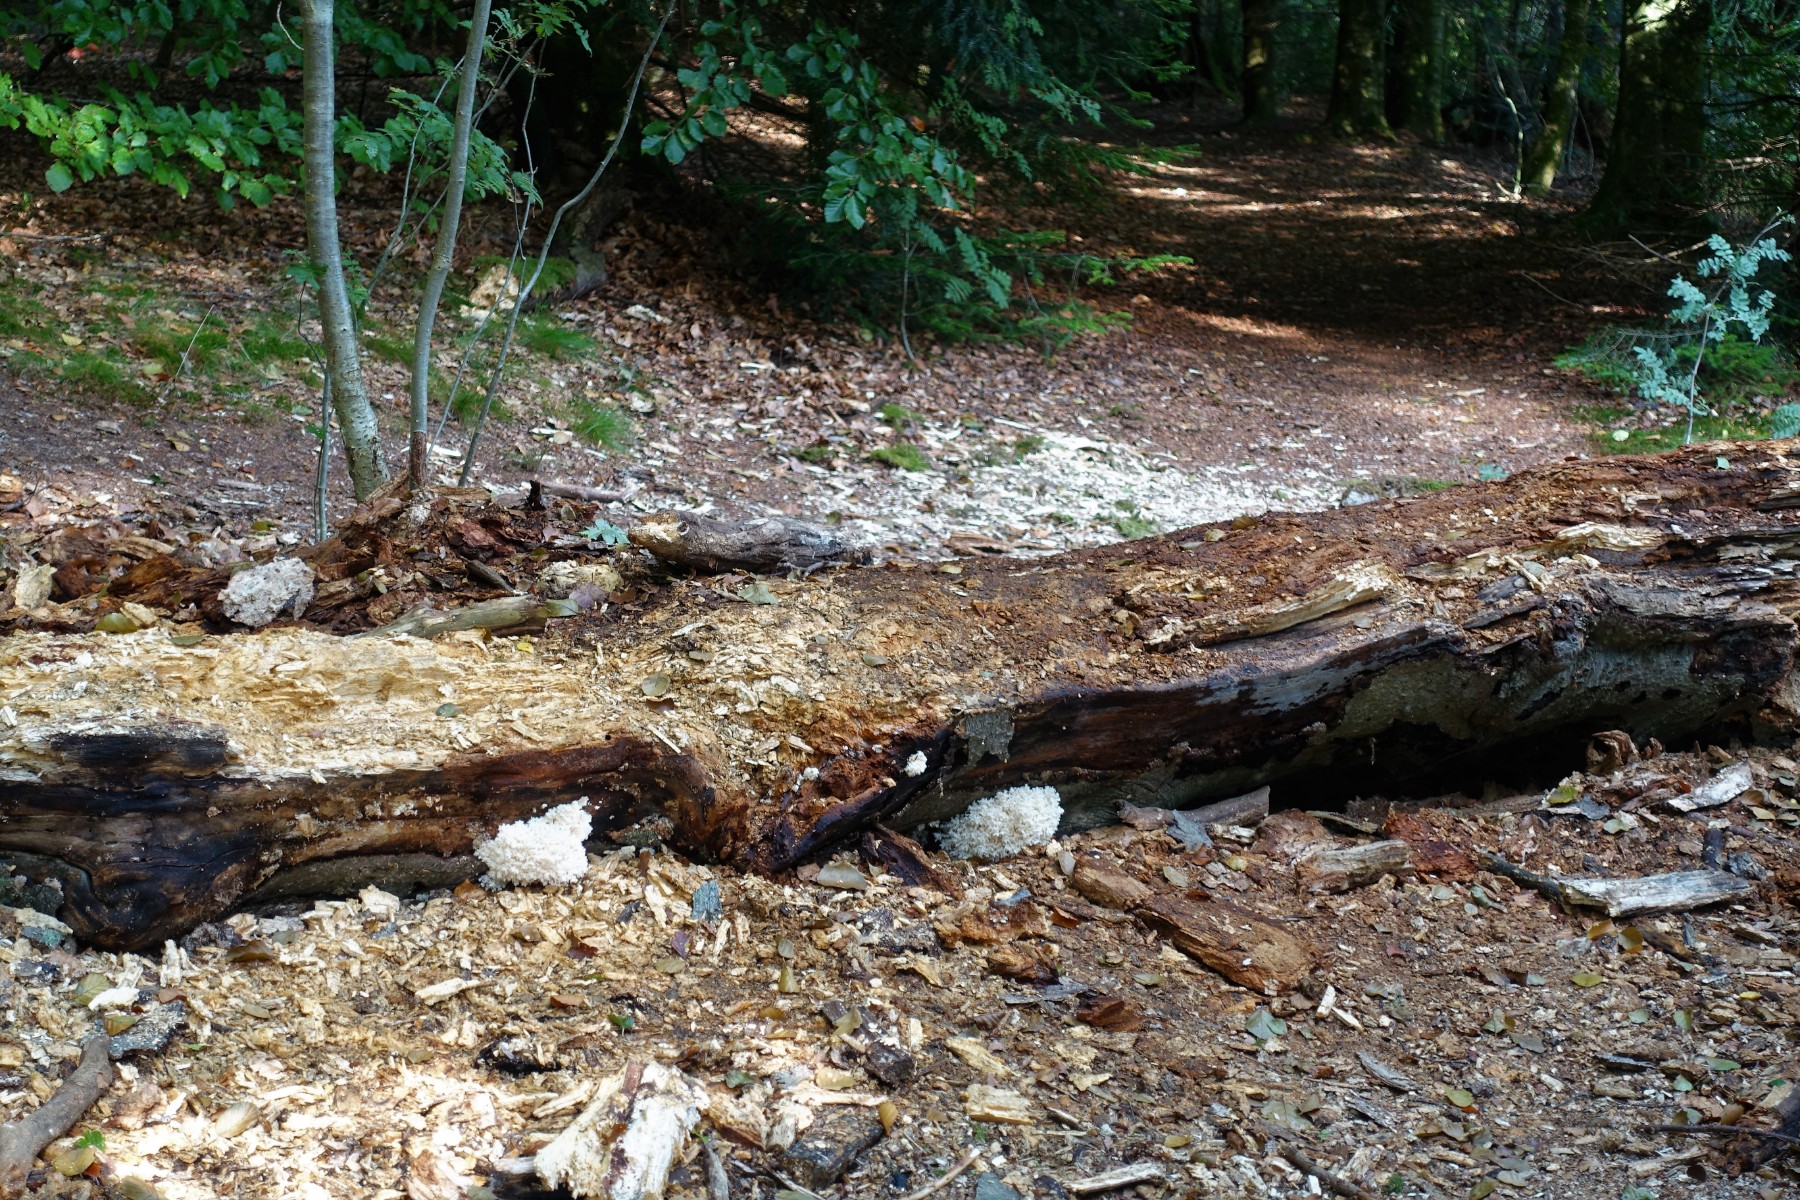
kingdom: Fungi
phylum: Basidiomycota
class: Agaricomycetes
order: Russulales
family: Hericiaceae
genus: Hericium
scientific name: Hericium coralloides
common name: koralpigsvamp
